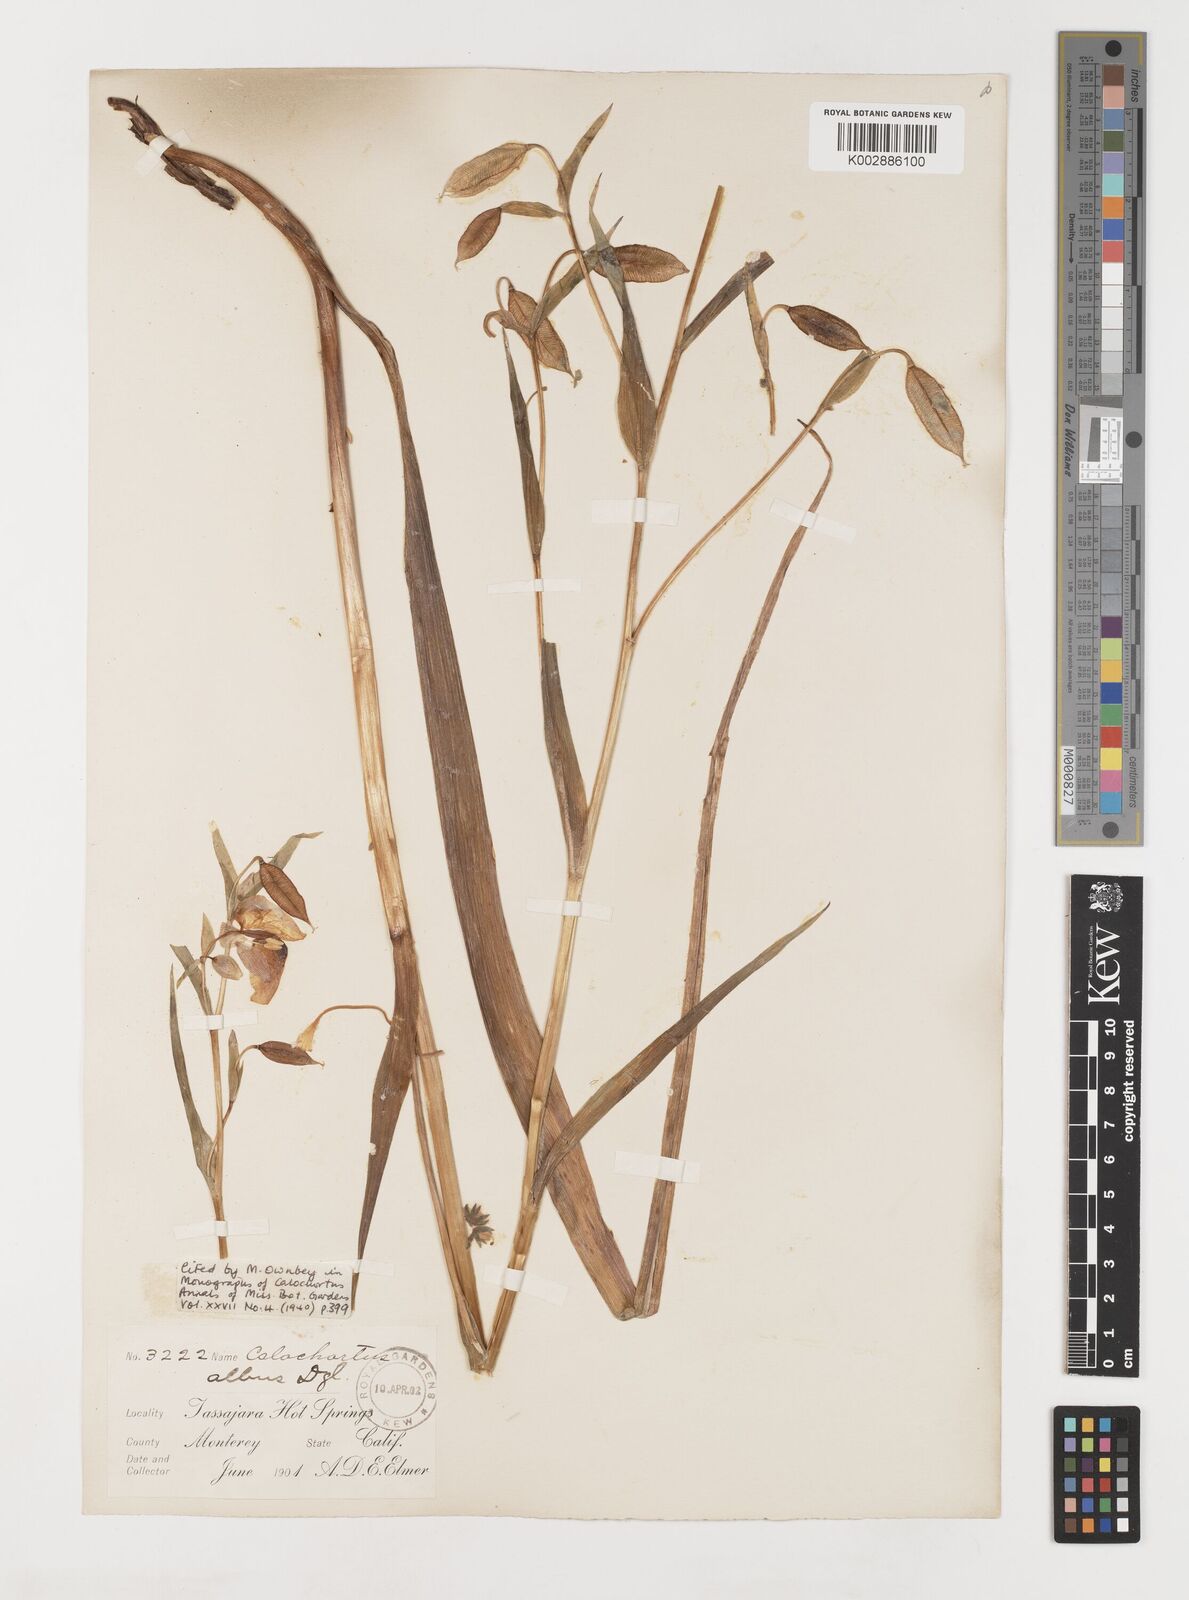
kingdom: Plantae
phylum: Tracheophyta
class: Liliopsida
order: Liliales
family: Liliaceae
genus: Calochortus
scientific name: Calochortus albus
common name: Fairy-lantern
